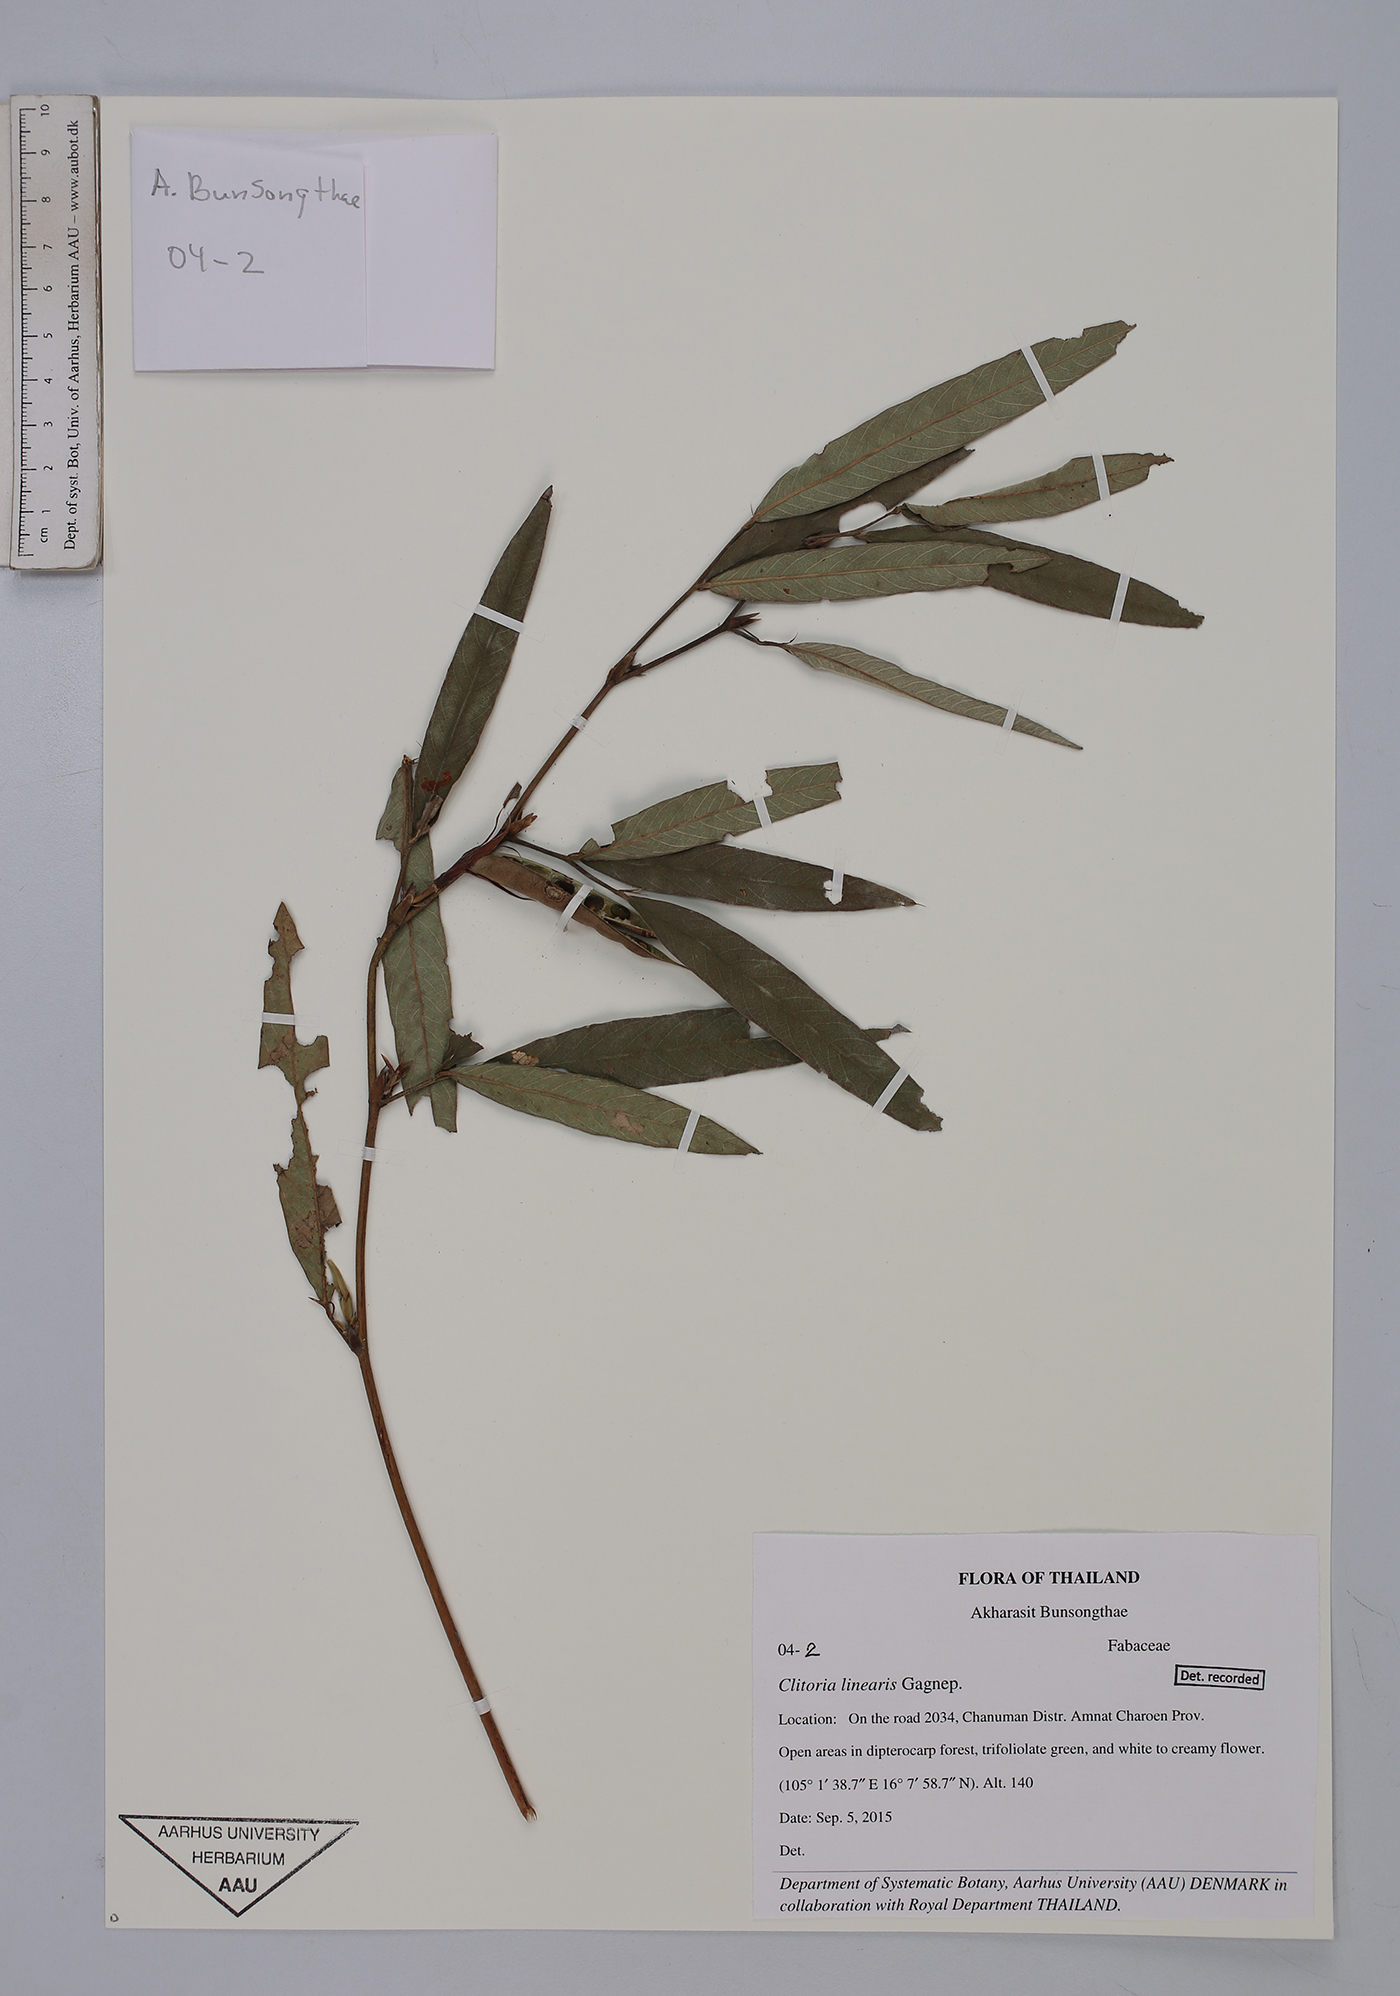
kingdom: Plantae
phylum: Tracheophyta
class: Magnoliopsida
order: Fabales
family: Fabaceae
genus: Clitoria
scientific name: Clitoria linearis
